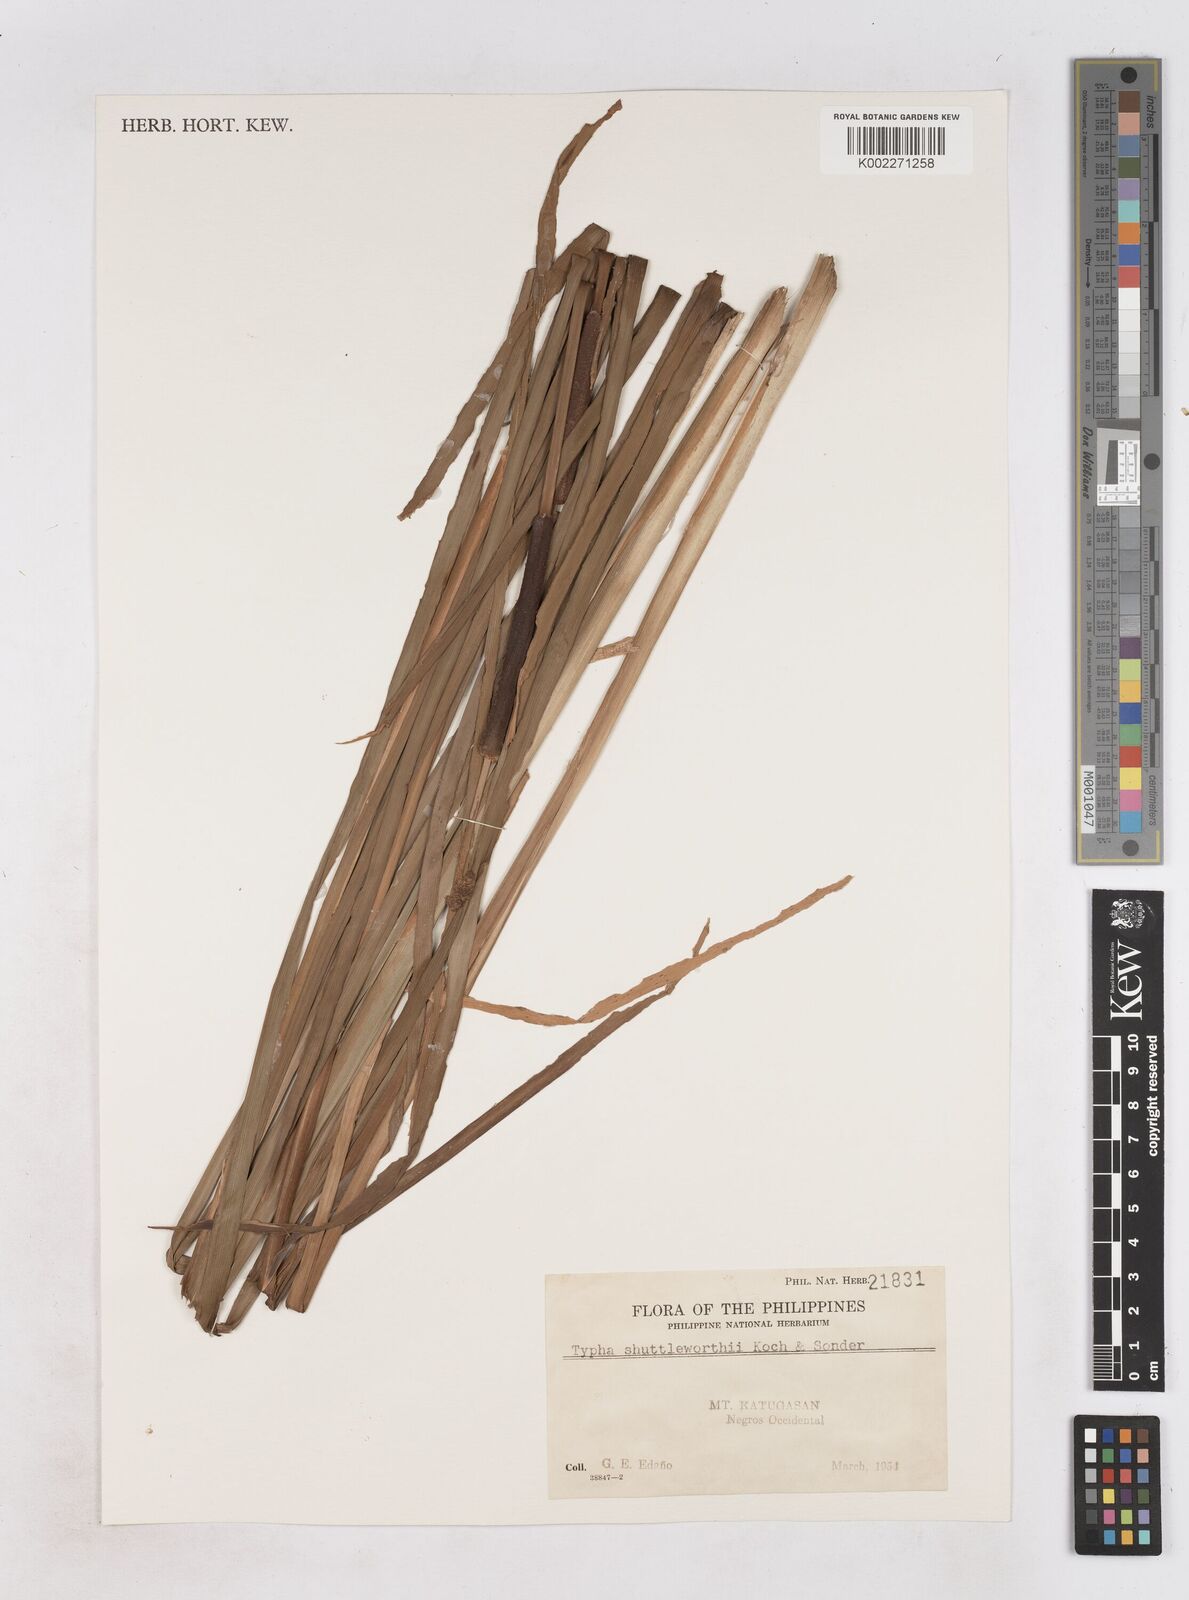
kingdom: Plantae
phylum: Tracheophyta
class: Liliopsida
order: Poales
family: Typhaceae
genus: Typha
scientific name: Typha shuttleworthii
